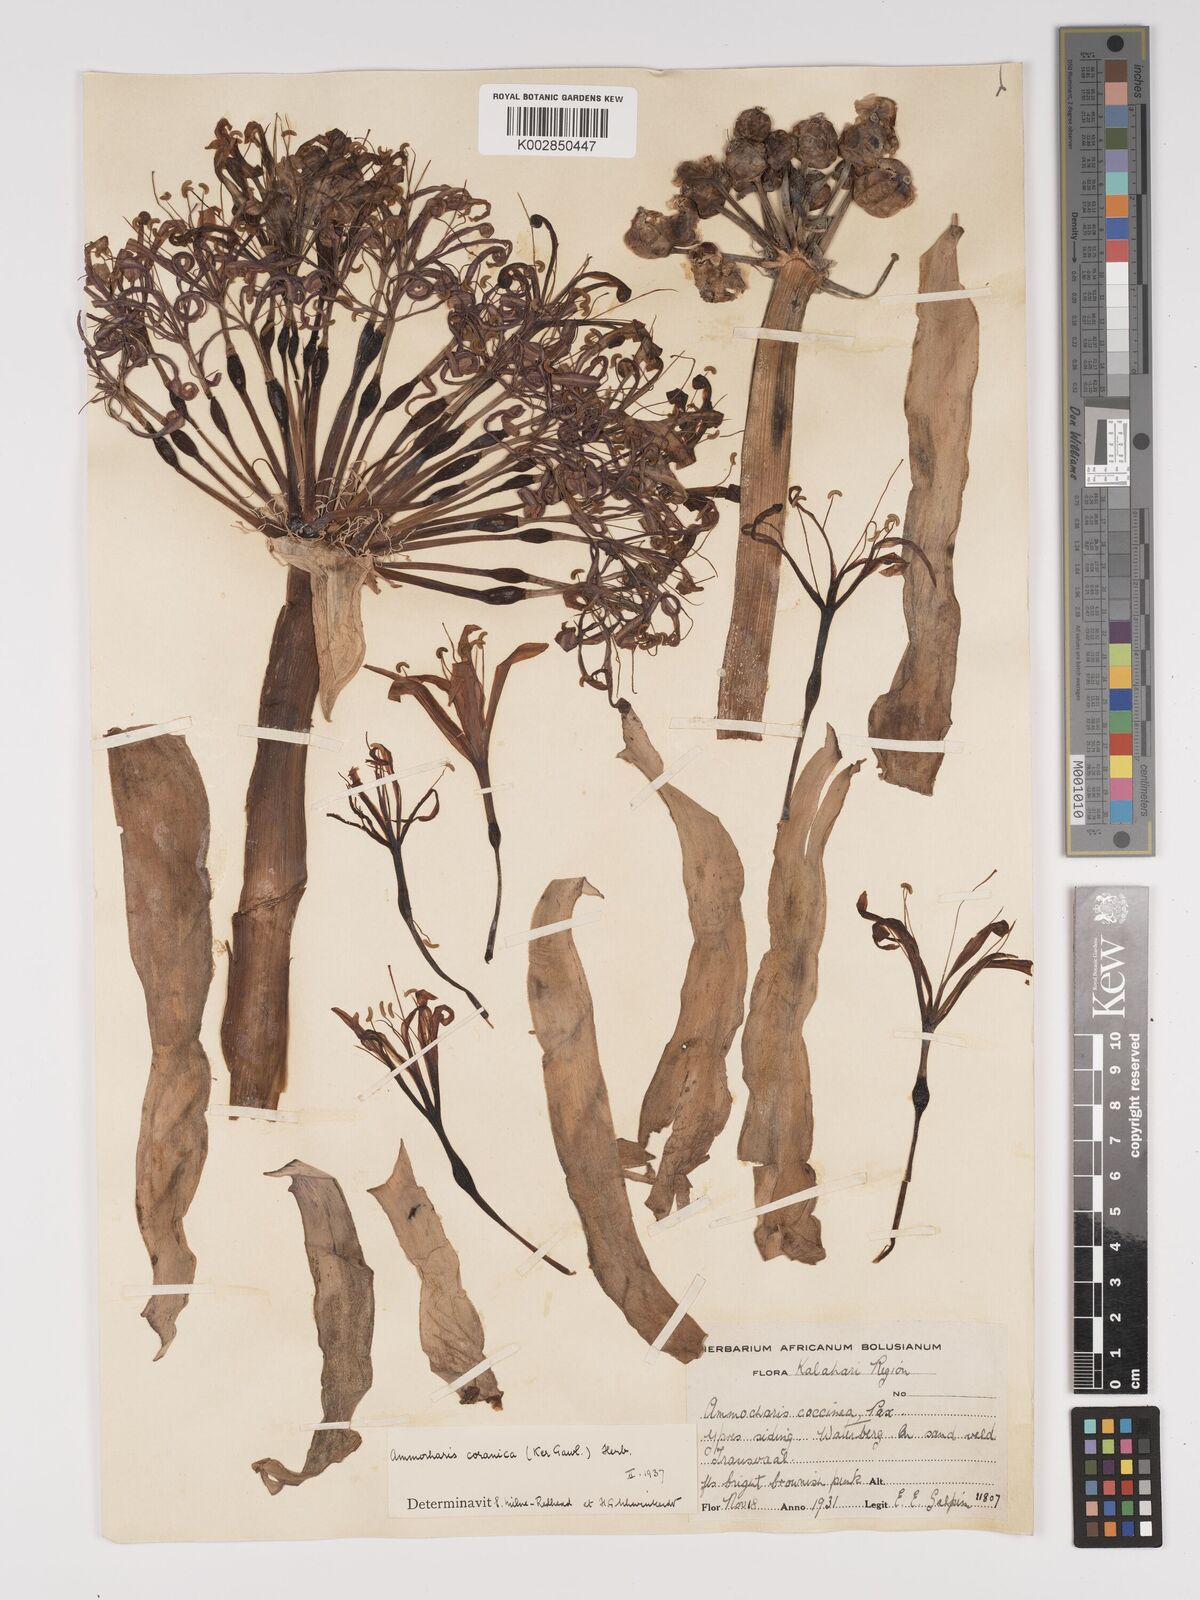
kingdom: Plantae
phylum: Tracheophyta
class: Liliopsida
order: Asparagales
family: Amaryllidaceae
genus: Ammocharis
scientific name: Ammocharis coranica
